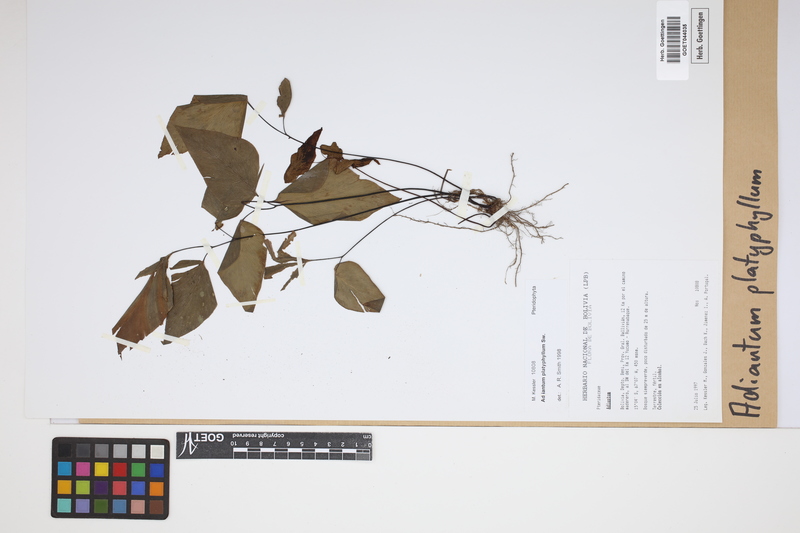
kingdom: Plantae
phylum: Tracheophyta
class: Polypodiopsida
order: Polypodiales
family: Pteridaceae
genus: Adiantum
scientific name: Adiantum platyphyllum
